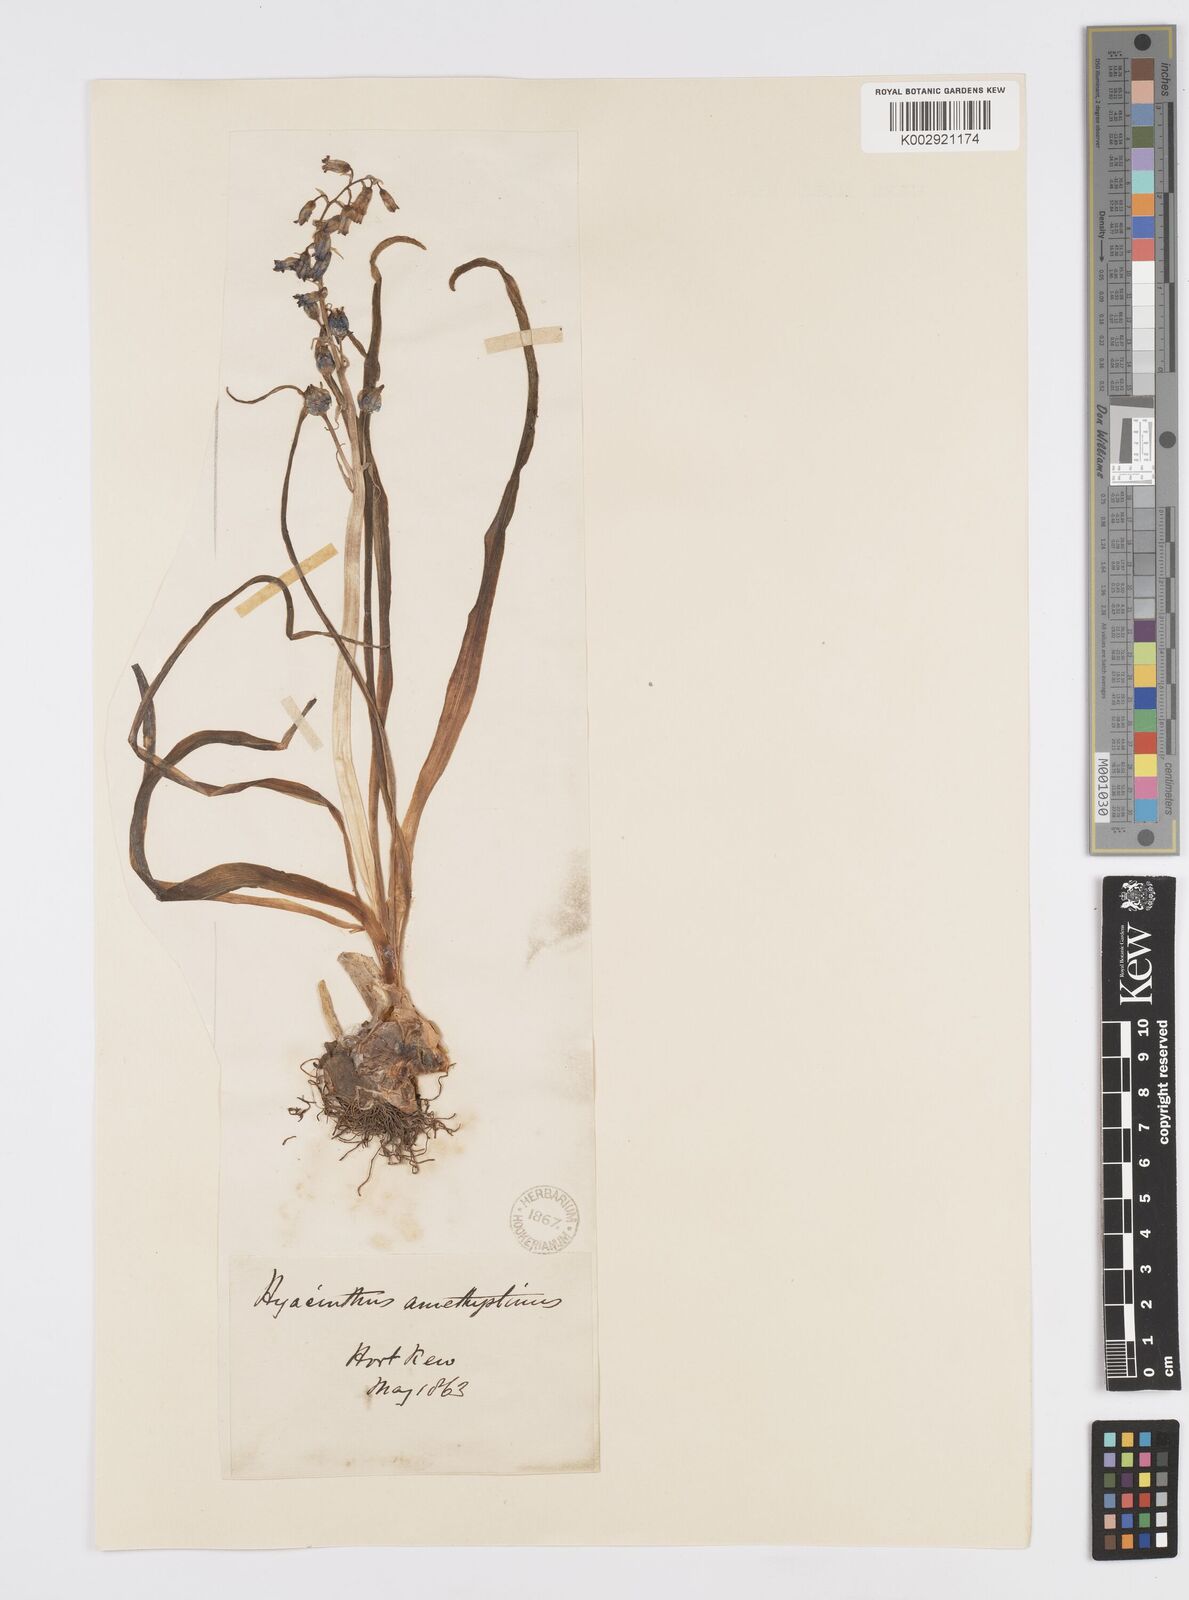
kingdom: Plantae
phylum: Tracheophyta
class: Liliopsida
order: Asparagales
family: Asparagaceae
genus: Brimeura
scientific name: Brimeura
